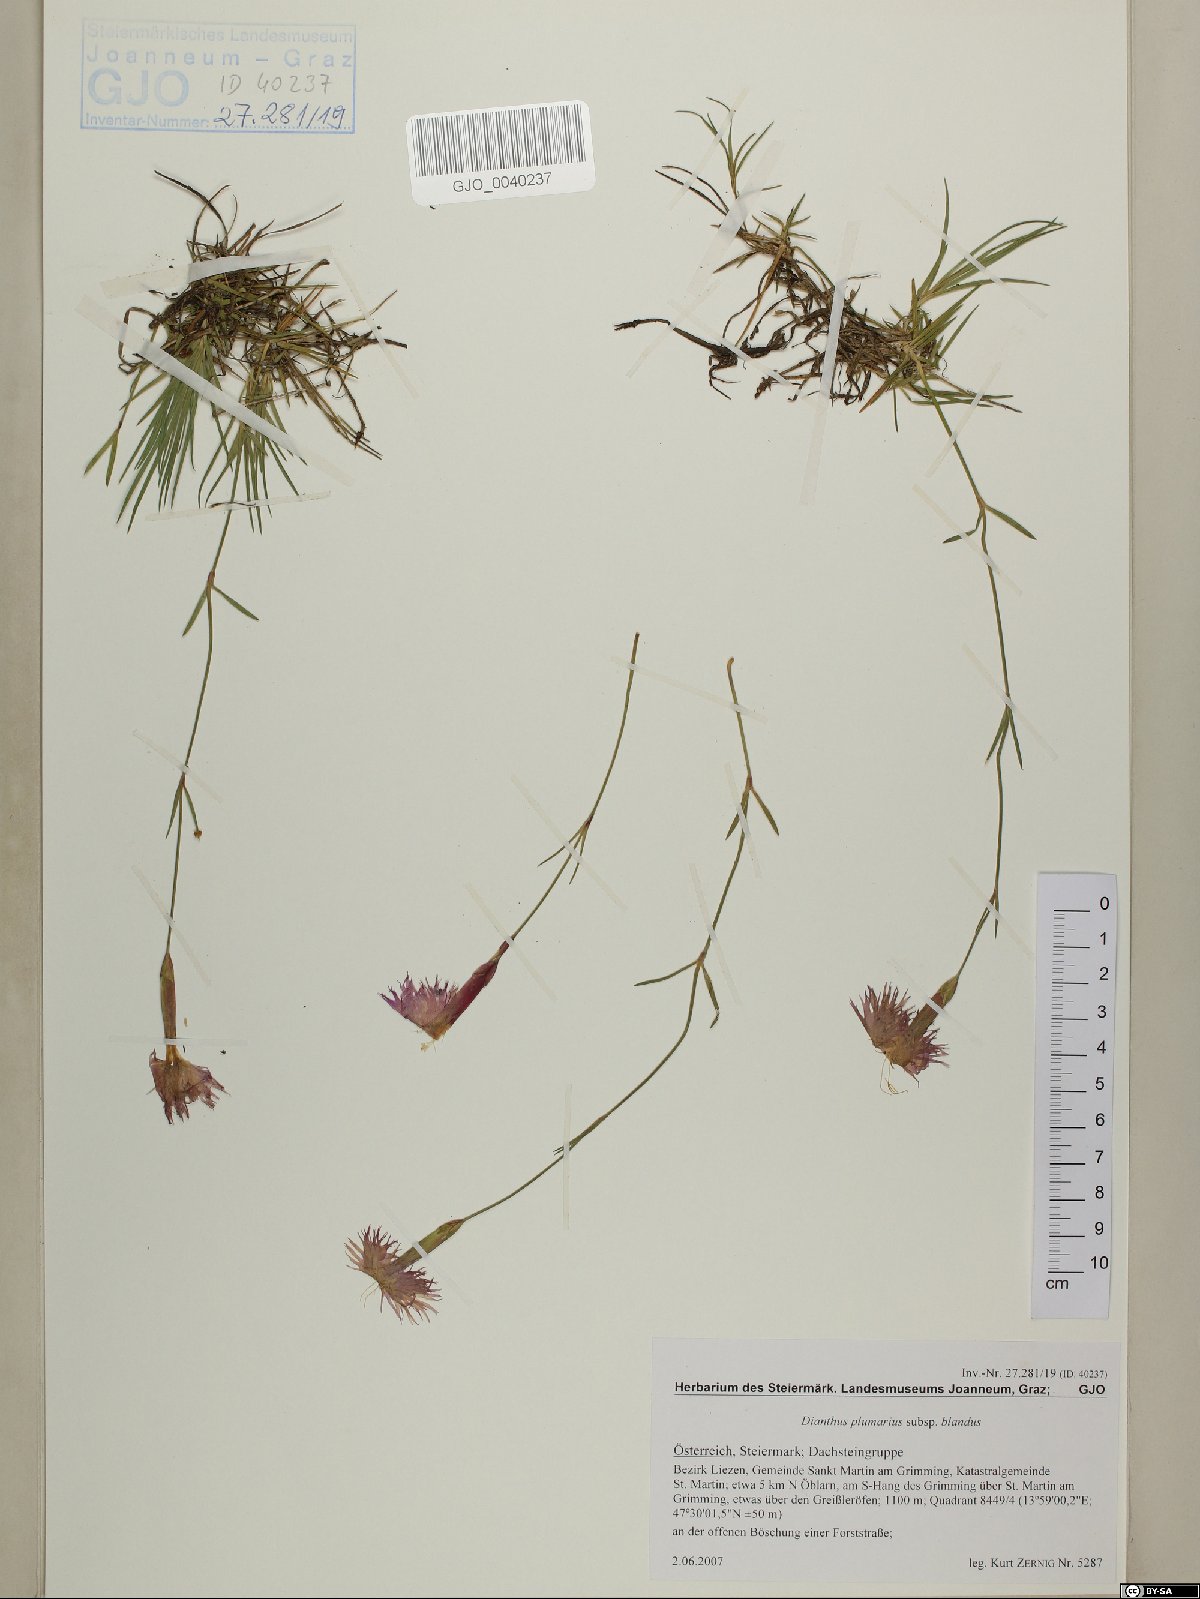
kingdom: Plantae
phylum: Tracheophyta
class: Magnoliopsida
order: Caryophyllales
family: Caryophyllaceae
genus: Dianthus
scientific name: Dianthus plumarius
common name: Pink
